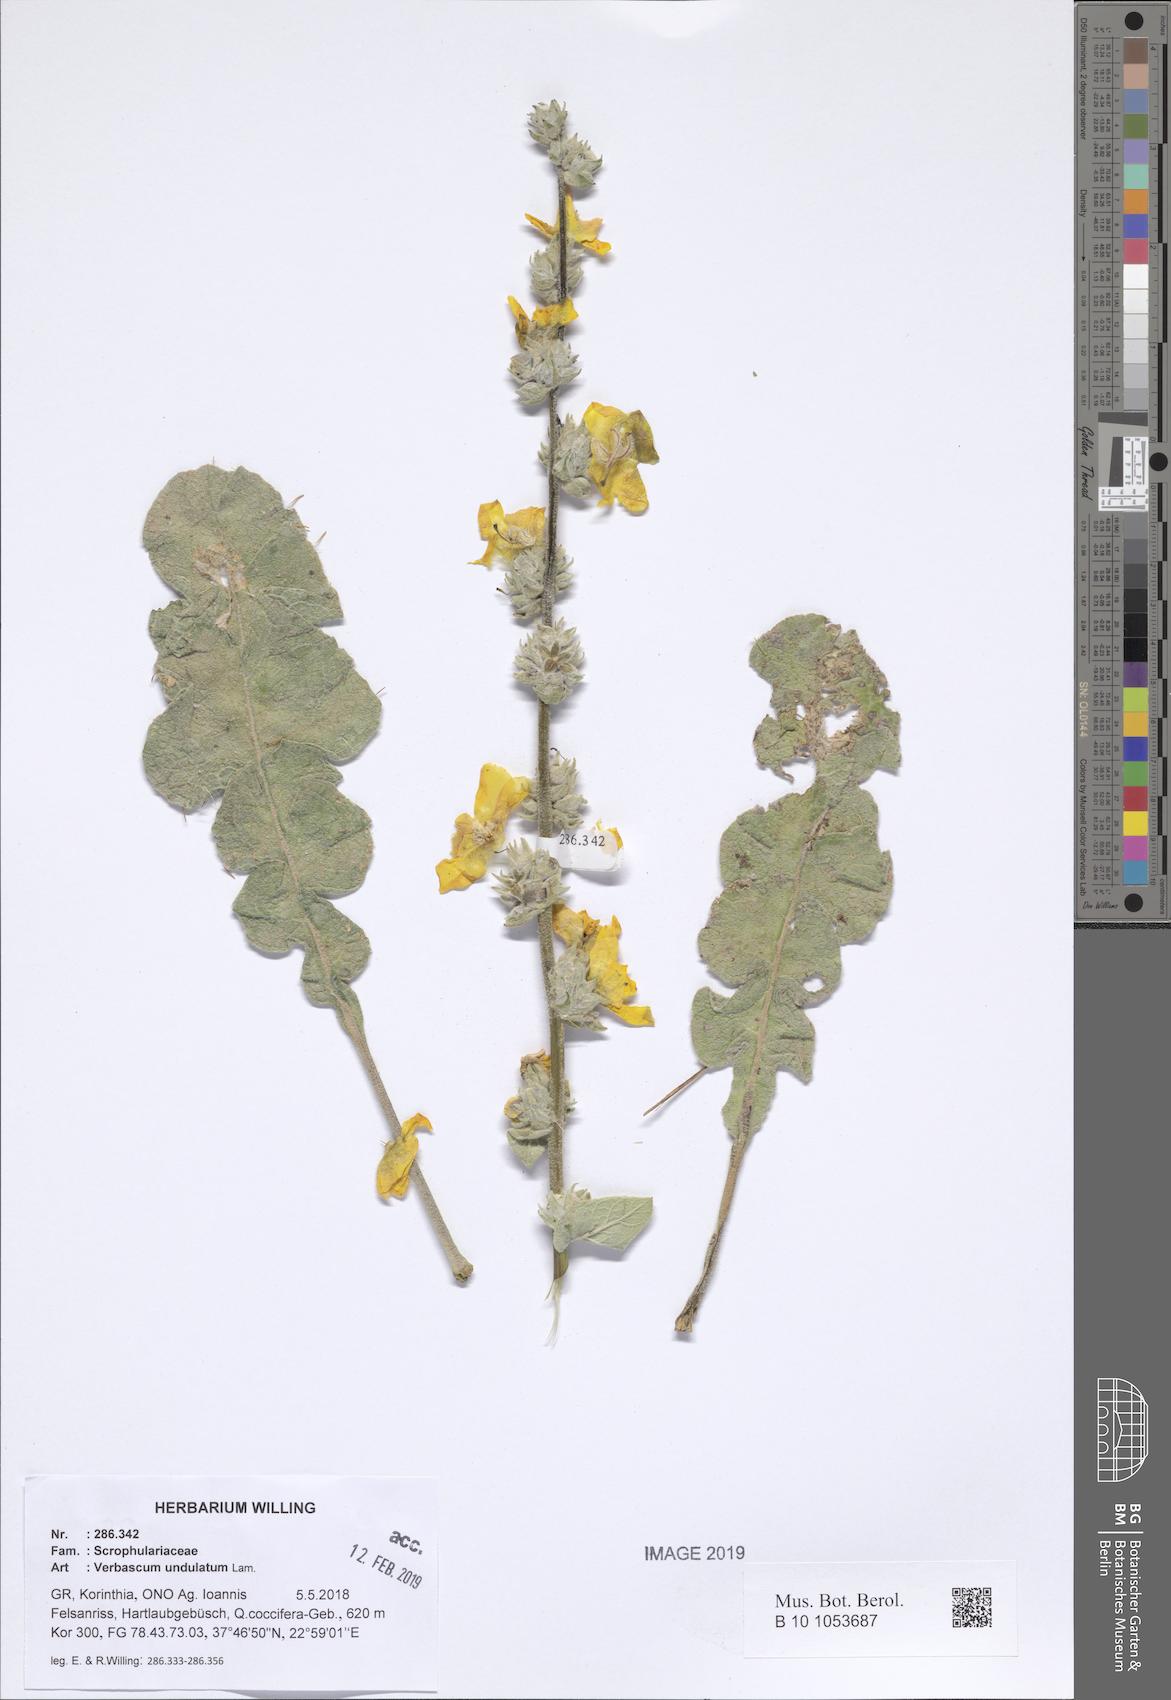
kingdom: Plantae
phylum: Tracheophyta
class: Magnoliopsida
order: Lamiales
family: Scrophulariaceae
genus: Verbascum
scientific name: Verbascum undulatum
